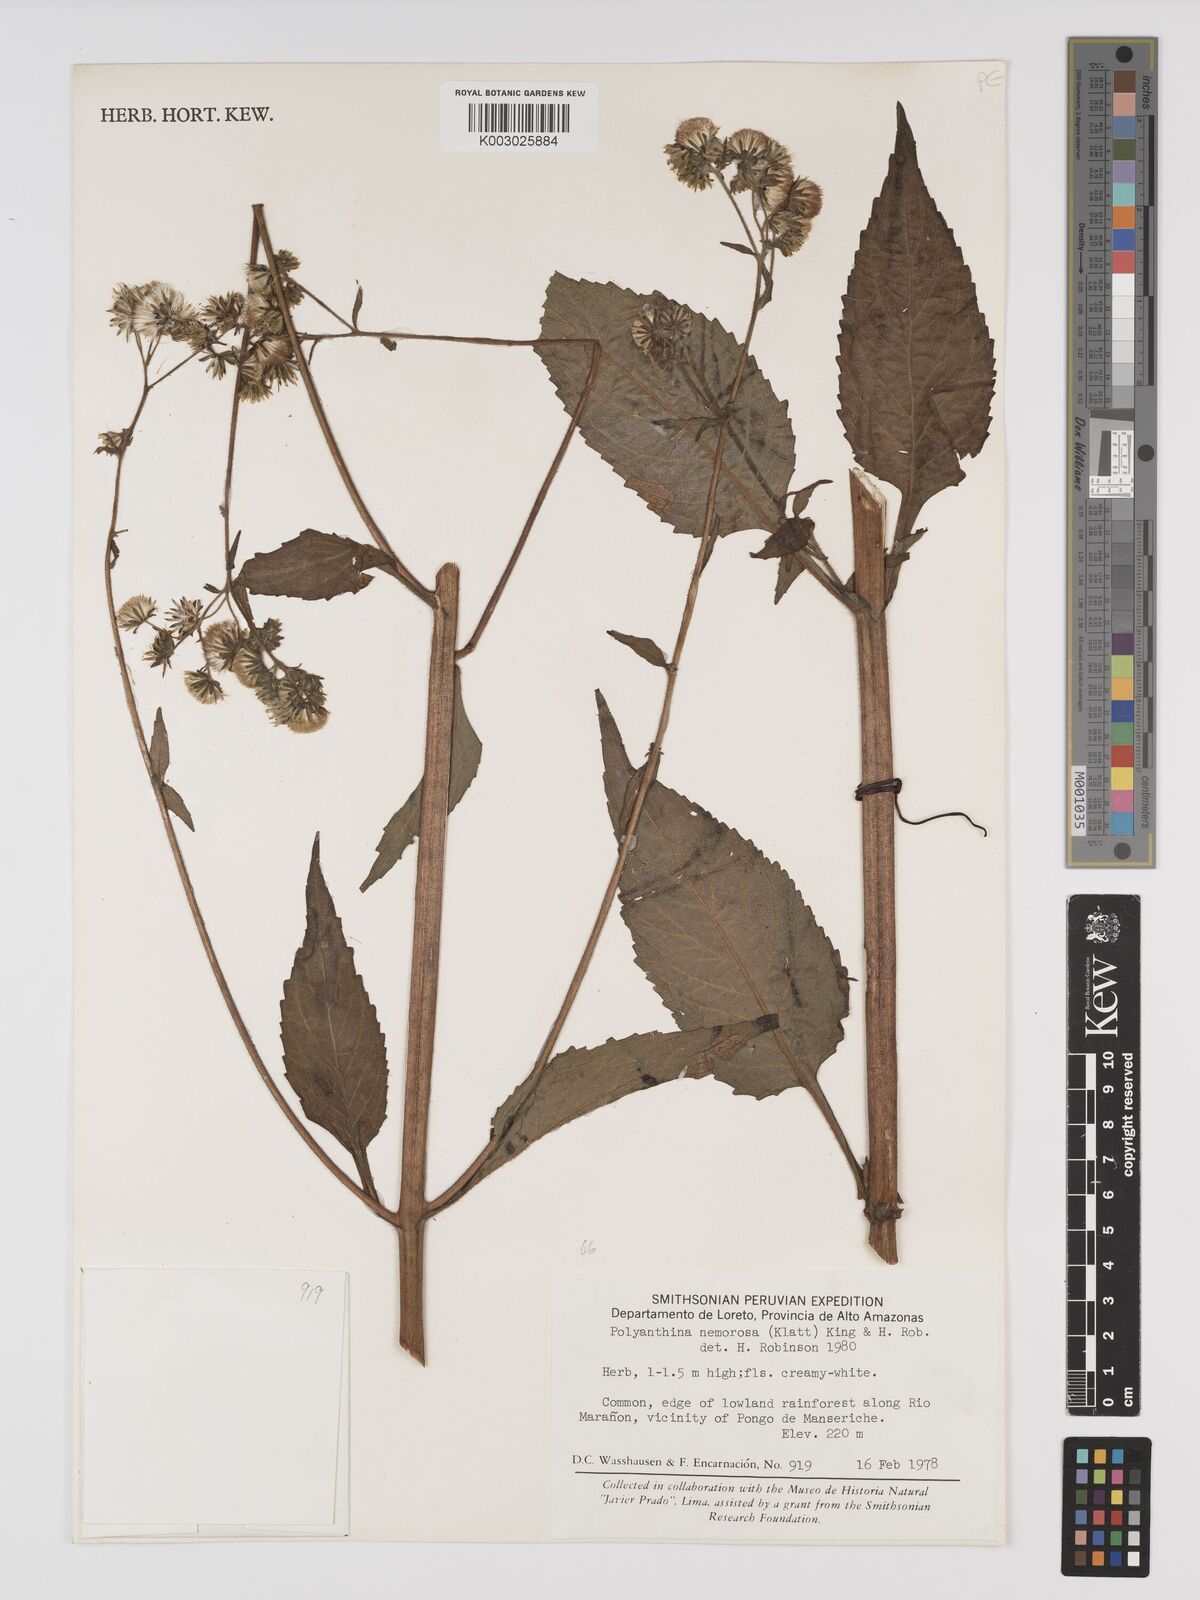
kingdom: Plantae
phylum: Tracheophyta
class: Magnoliopsida
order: Asterales
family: Asteraceae
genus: Polyanthina
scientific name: Polyanthina nemorosa
